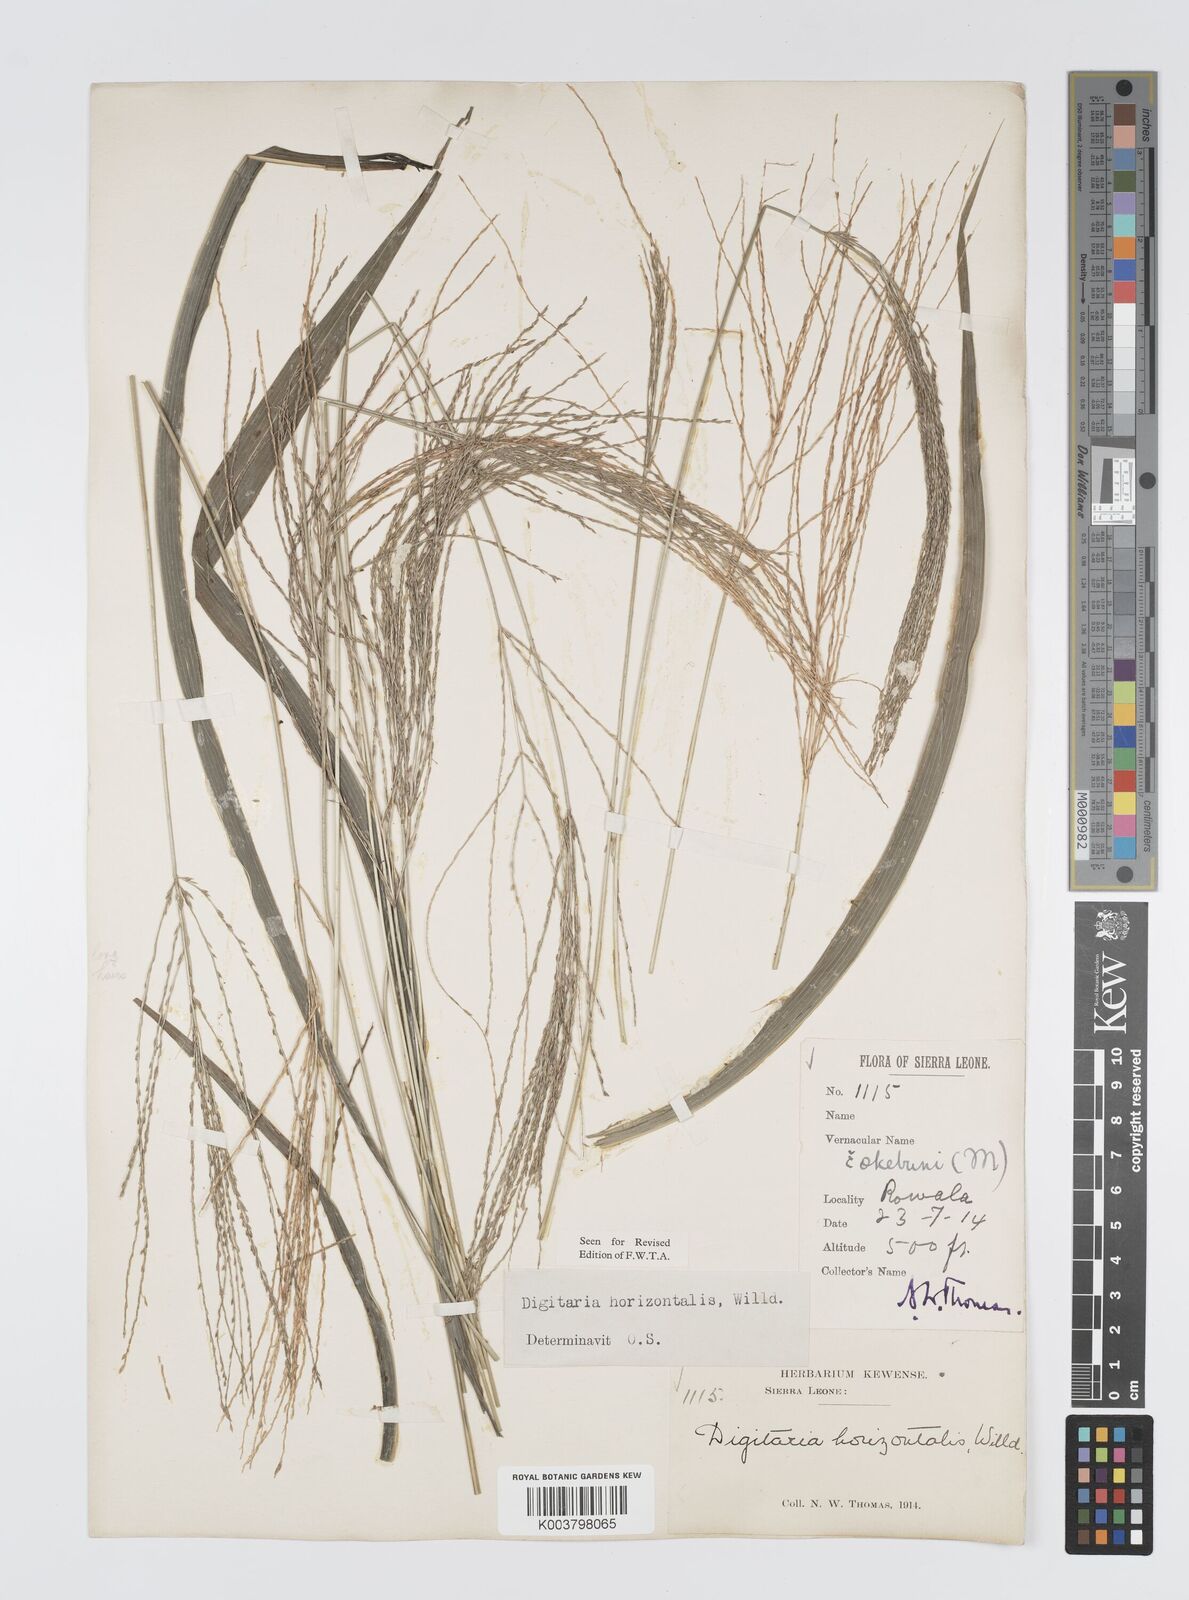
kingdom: Plantae
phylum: Tracheophyta
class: Liliopsida
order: Poales
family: Poaceae
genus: Digitaria
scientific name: Digitaria horizontalis
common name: Jamaican crabgrass
